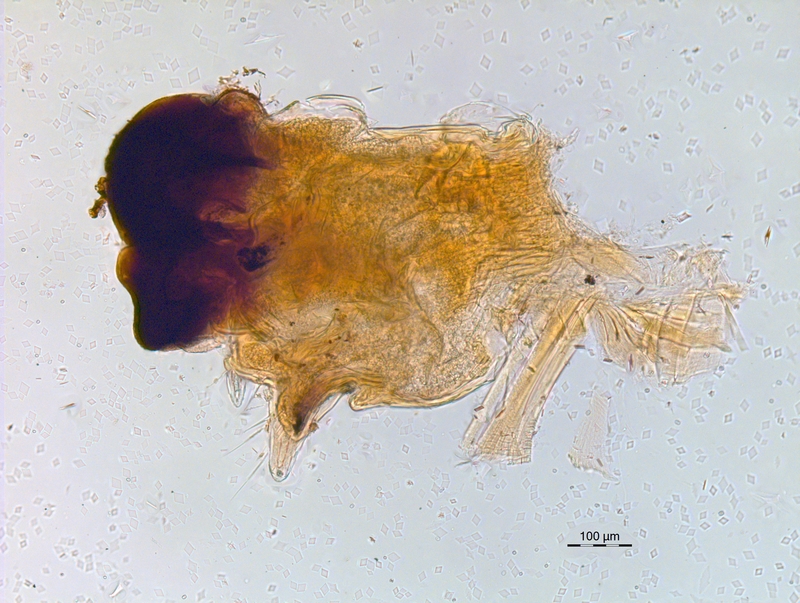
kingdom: Animalia
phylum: Arthropoda
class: Diplopoda
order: Chordeumatida
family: Chordeumatidae
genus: Melogona
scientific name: Melogona broelemanni
